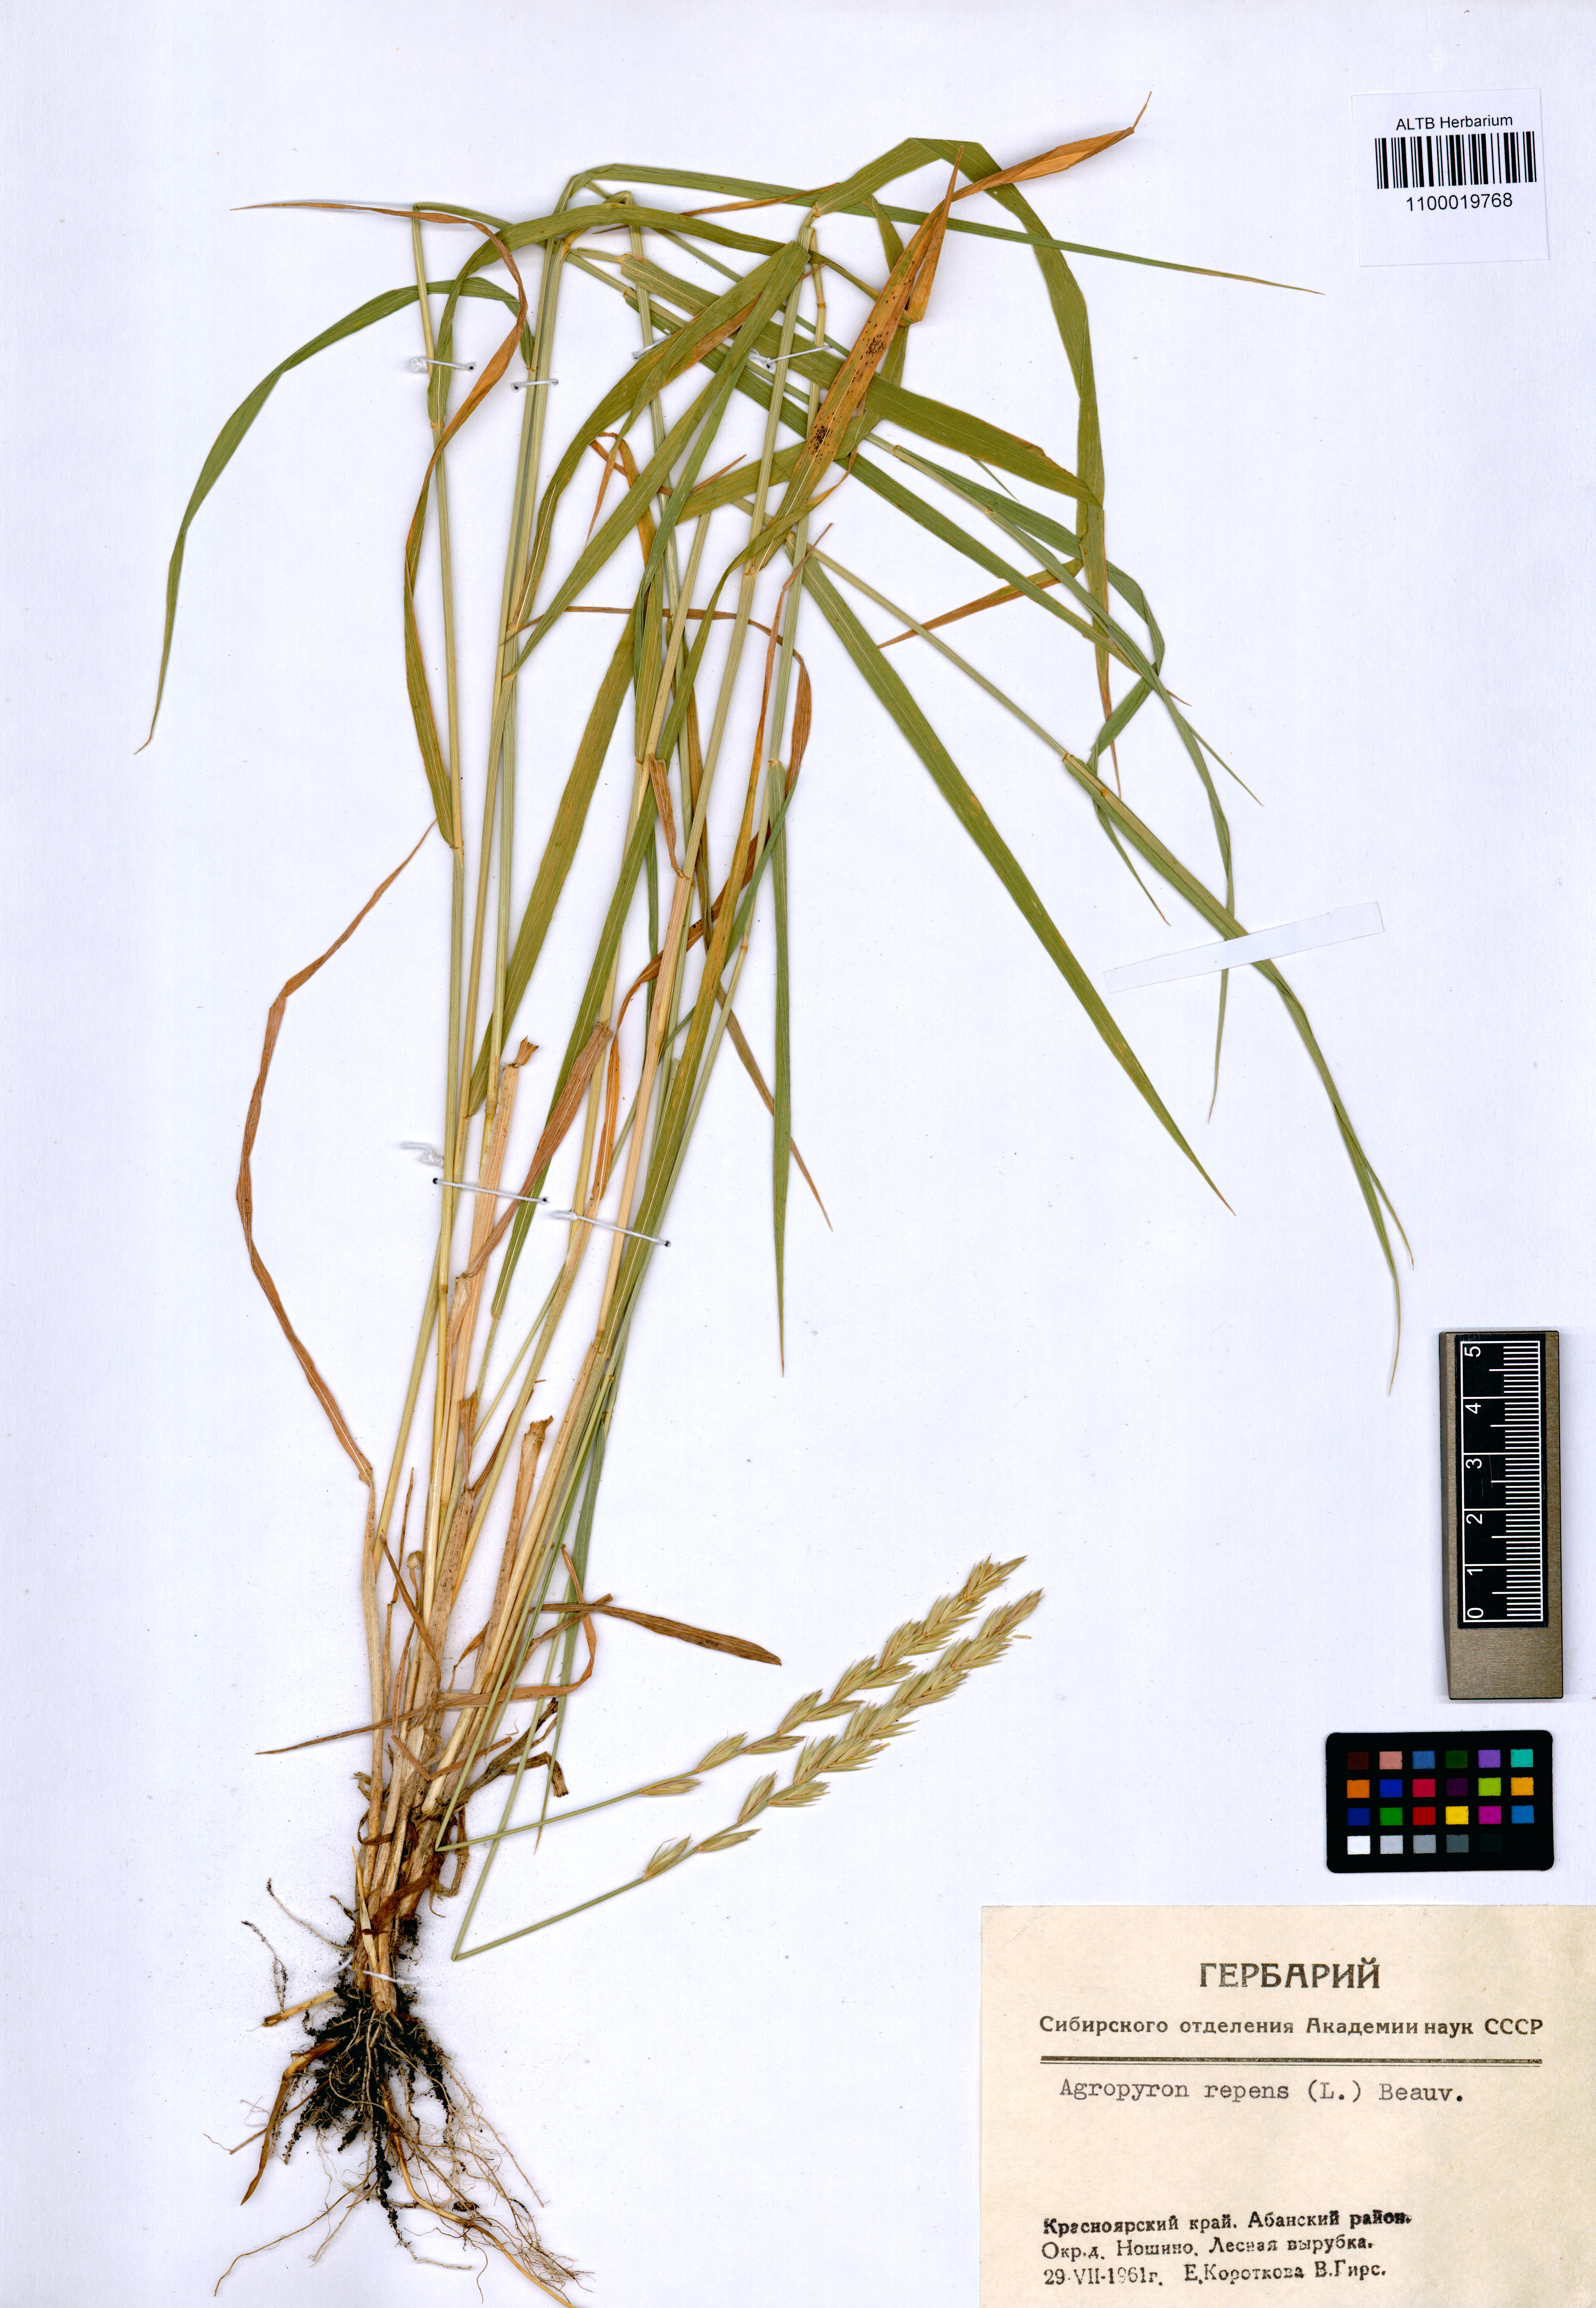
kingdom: Plantae
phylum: Tracheophyta
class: Liliopsida
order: Poales
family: Poaceae
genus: Elymus
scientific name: Elymus repens
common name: Quackgrass
